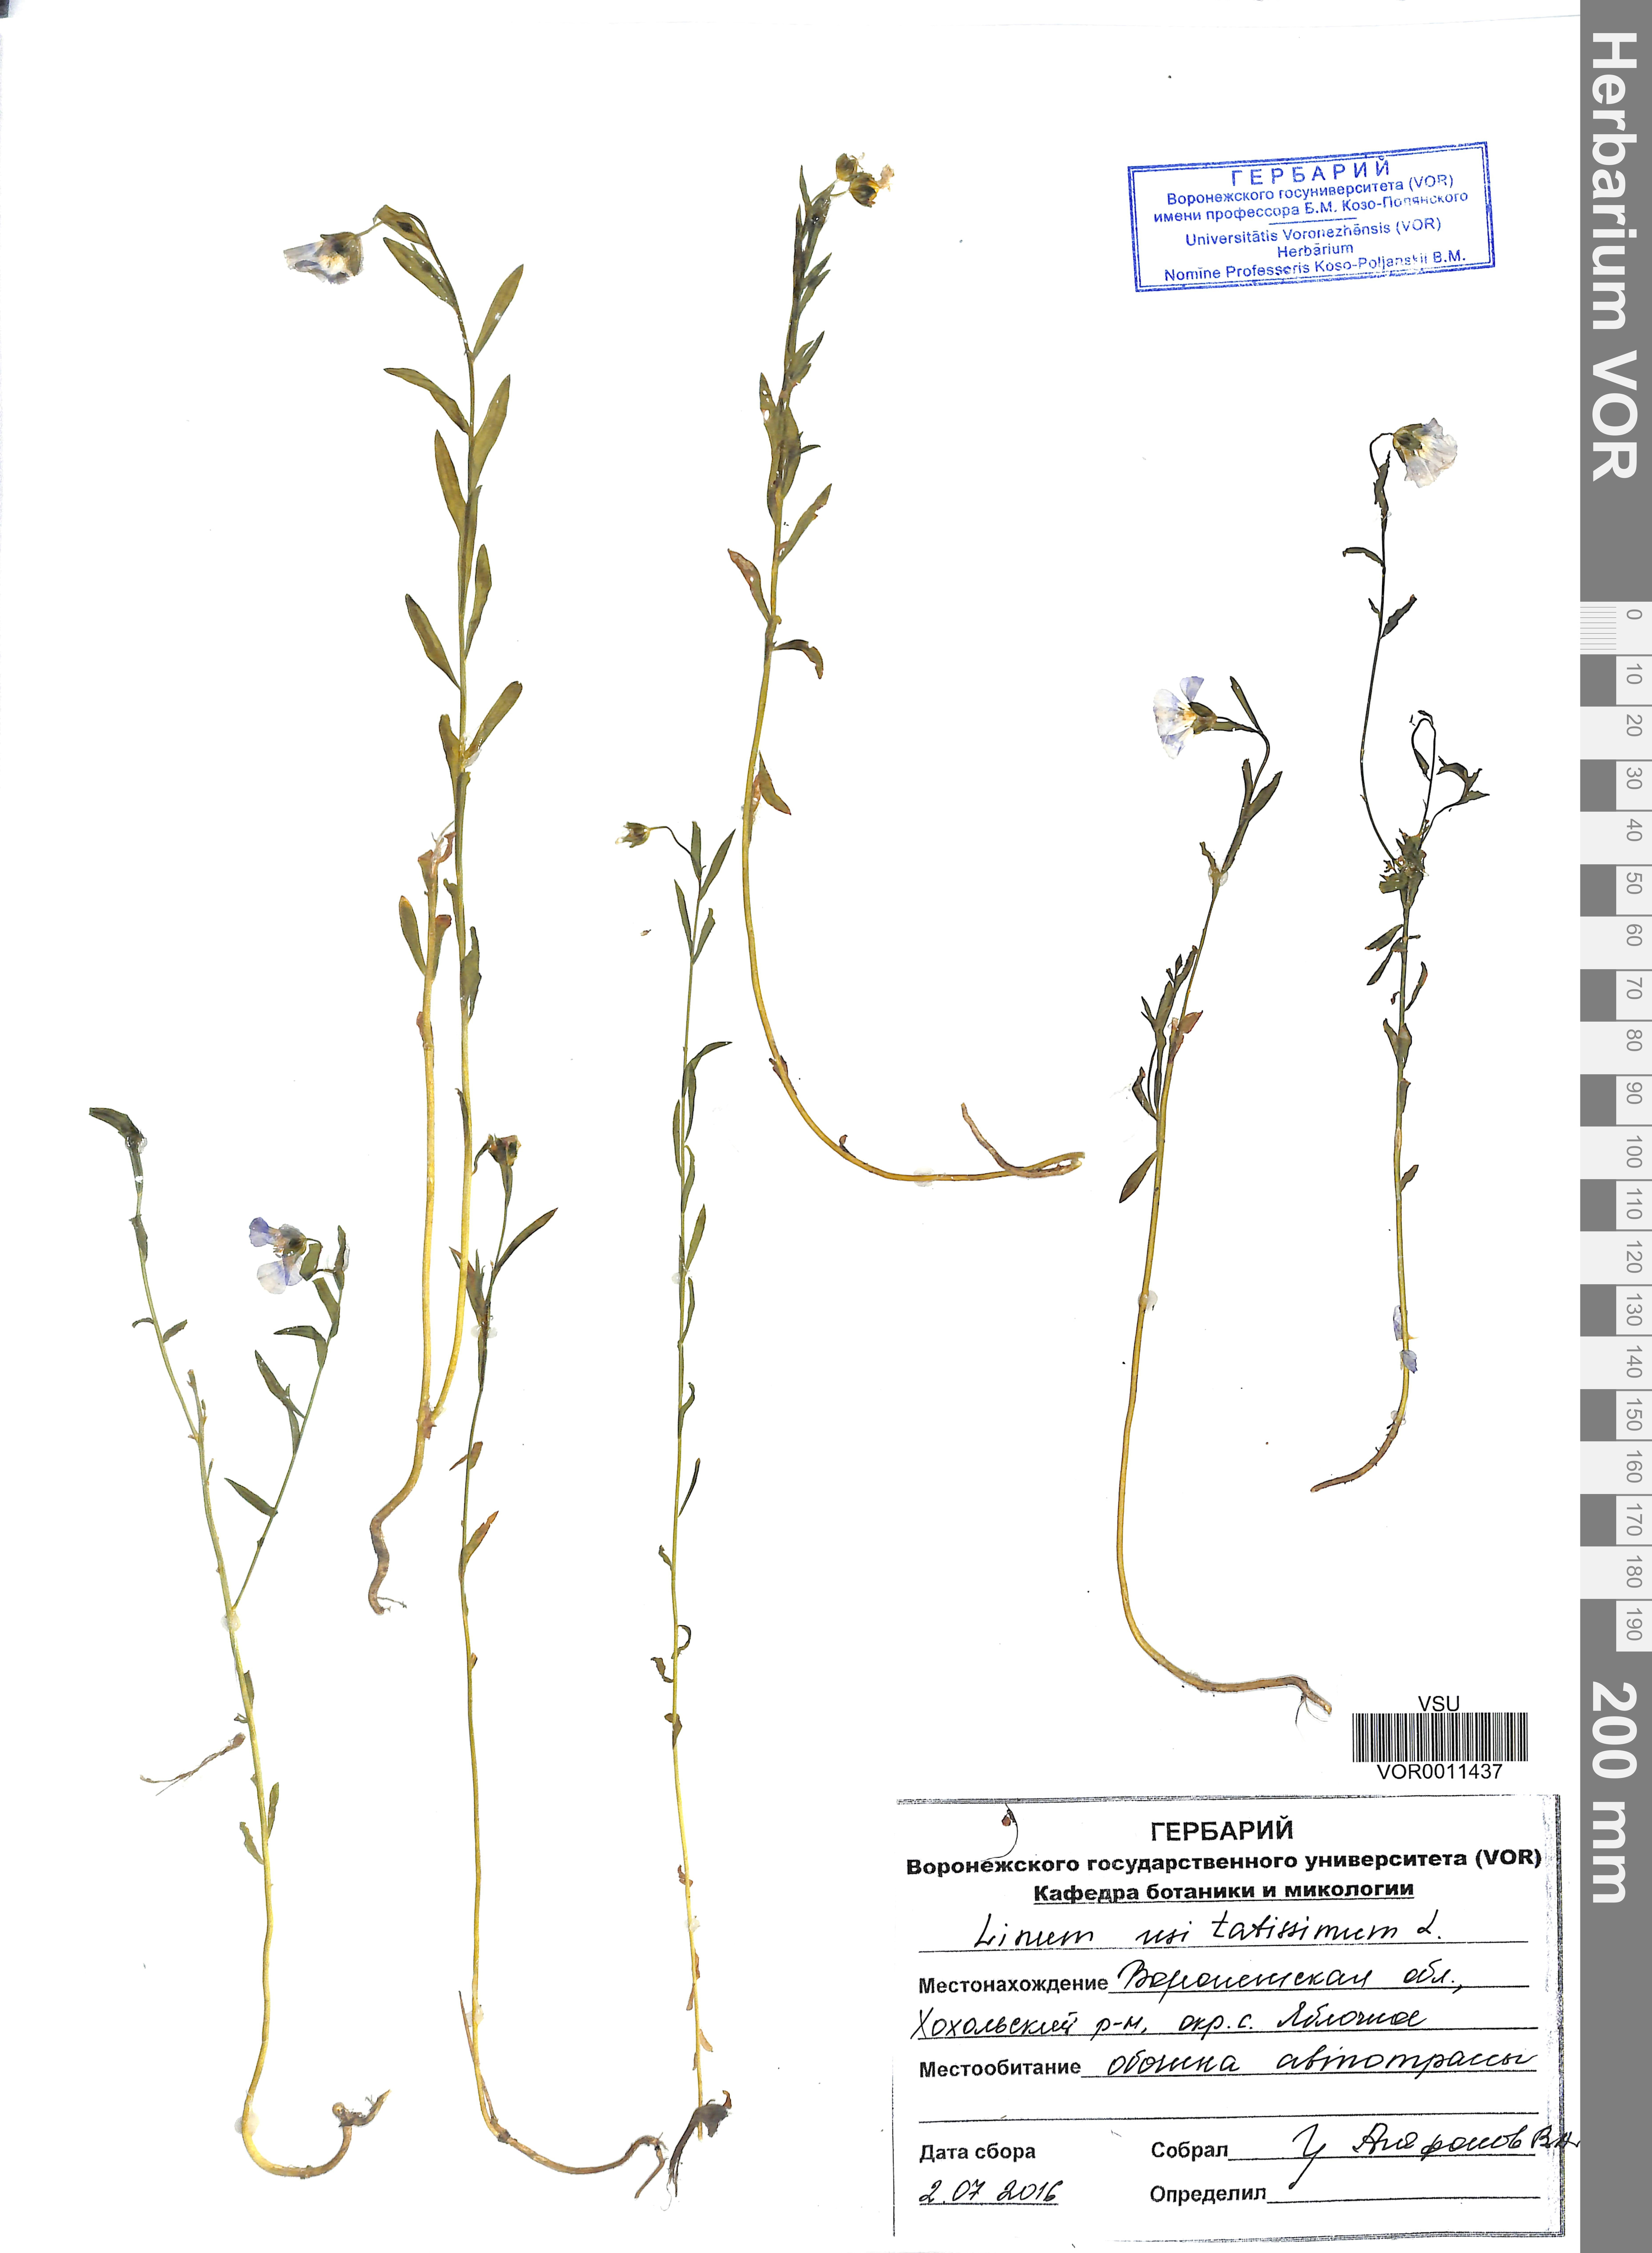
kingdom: Plantae
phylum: Tracheophyta
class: Magnoliopsida
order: Malpighiales
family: Linaceae
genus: Linum
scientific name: Linum usitatissimum
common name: Flax
